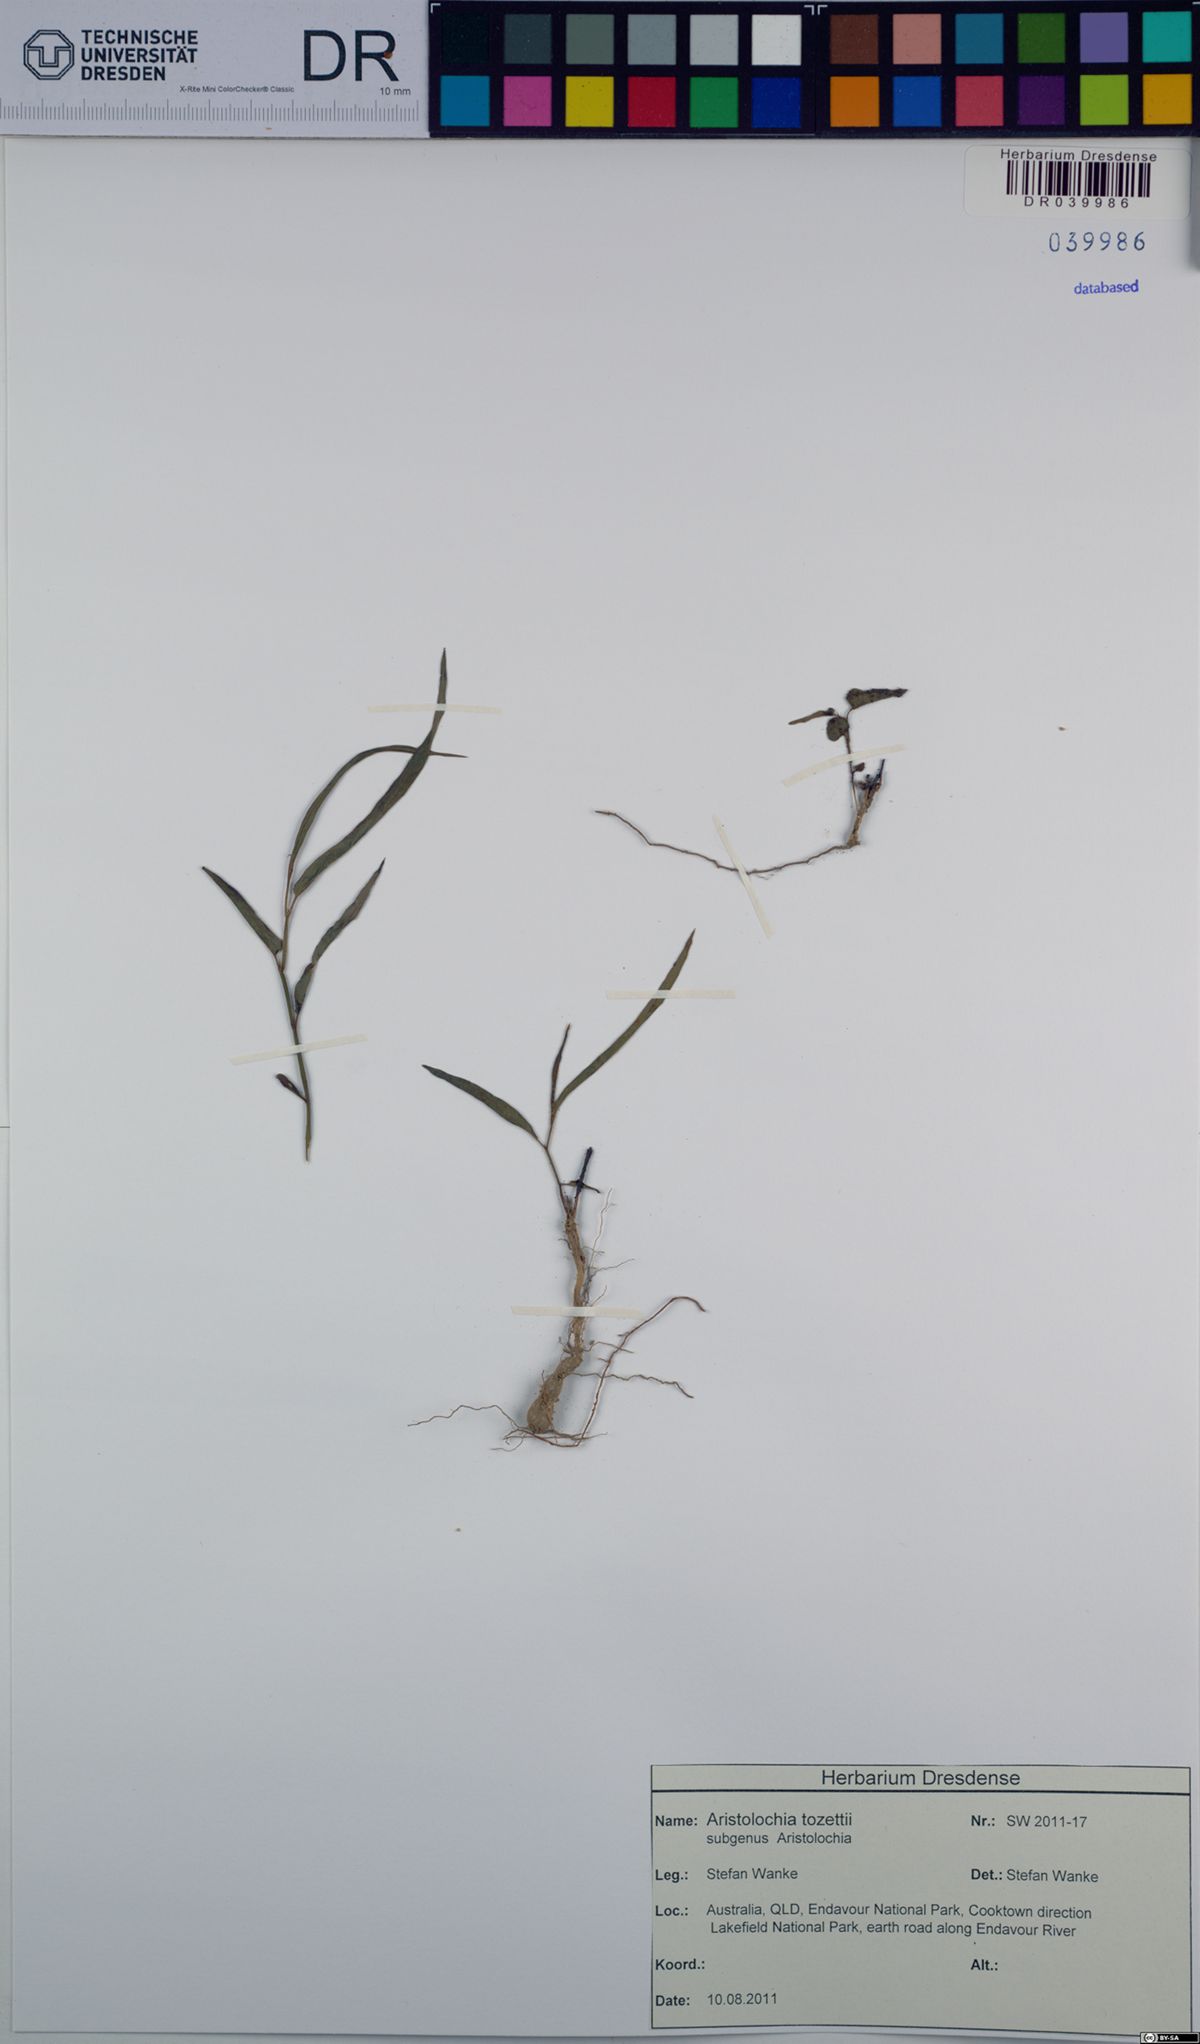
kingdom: Plantae
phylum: Tracheophyta
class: Magnoliopsida
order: Piperales
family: Aristolochiaceae
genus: Aristolochia
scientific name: Aristolochia thozetii
